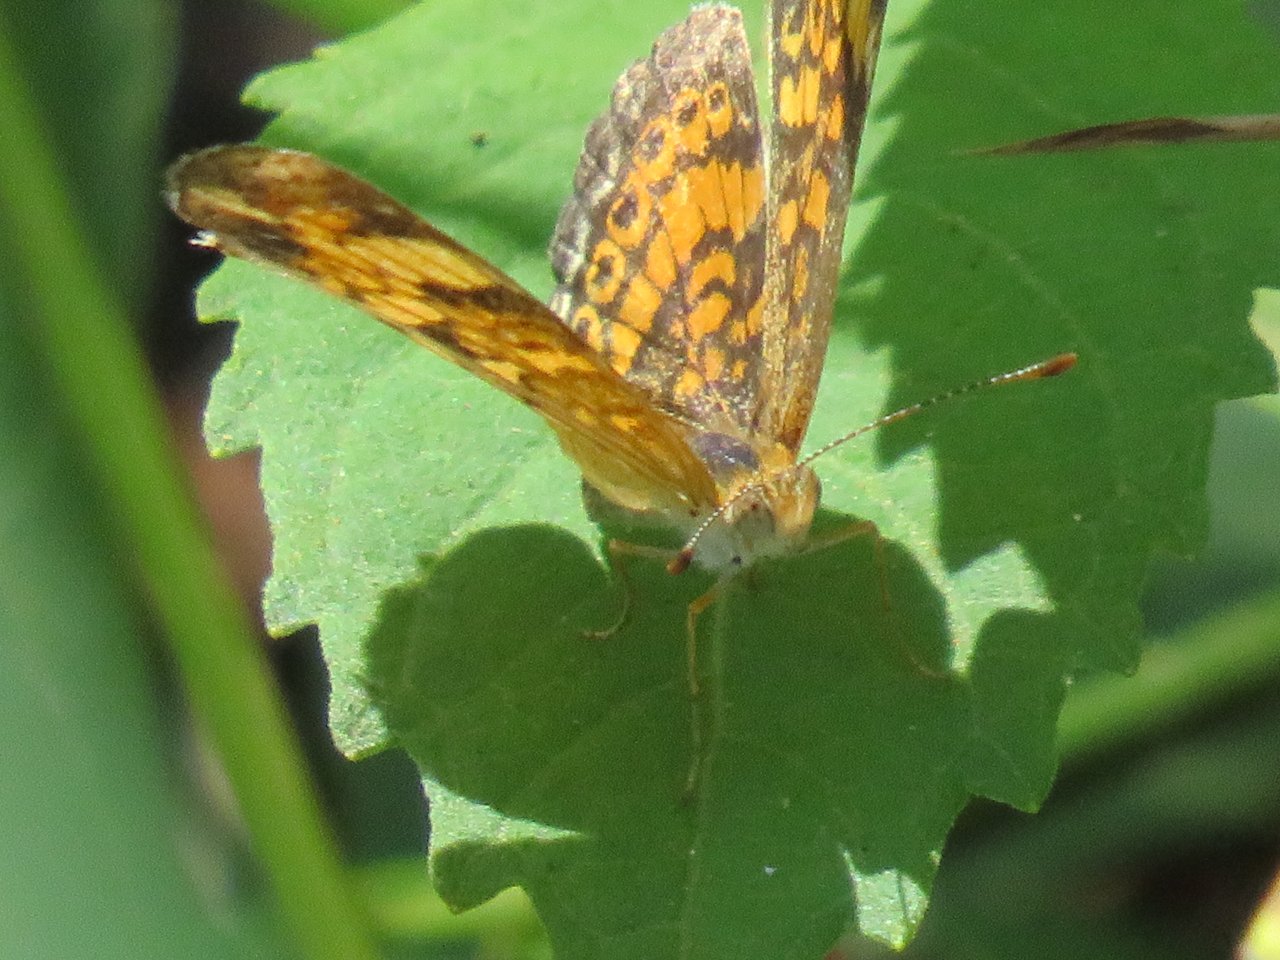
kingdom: Animalia
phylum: Arthropoda
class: Insecta
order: Lepidoptera
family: Nymphalidae
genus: Phyciodes
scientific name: Phyciodes tharos
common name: Pearl Crescent
